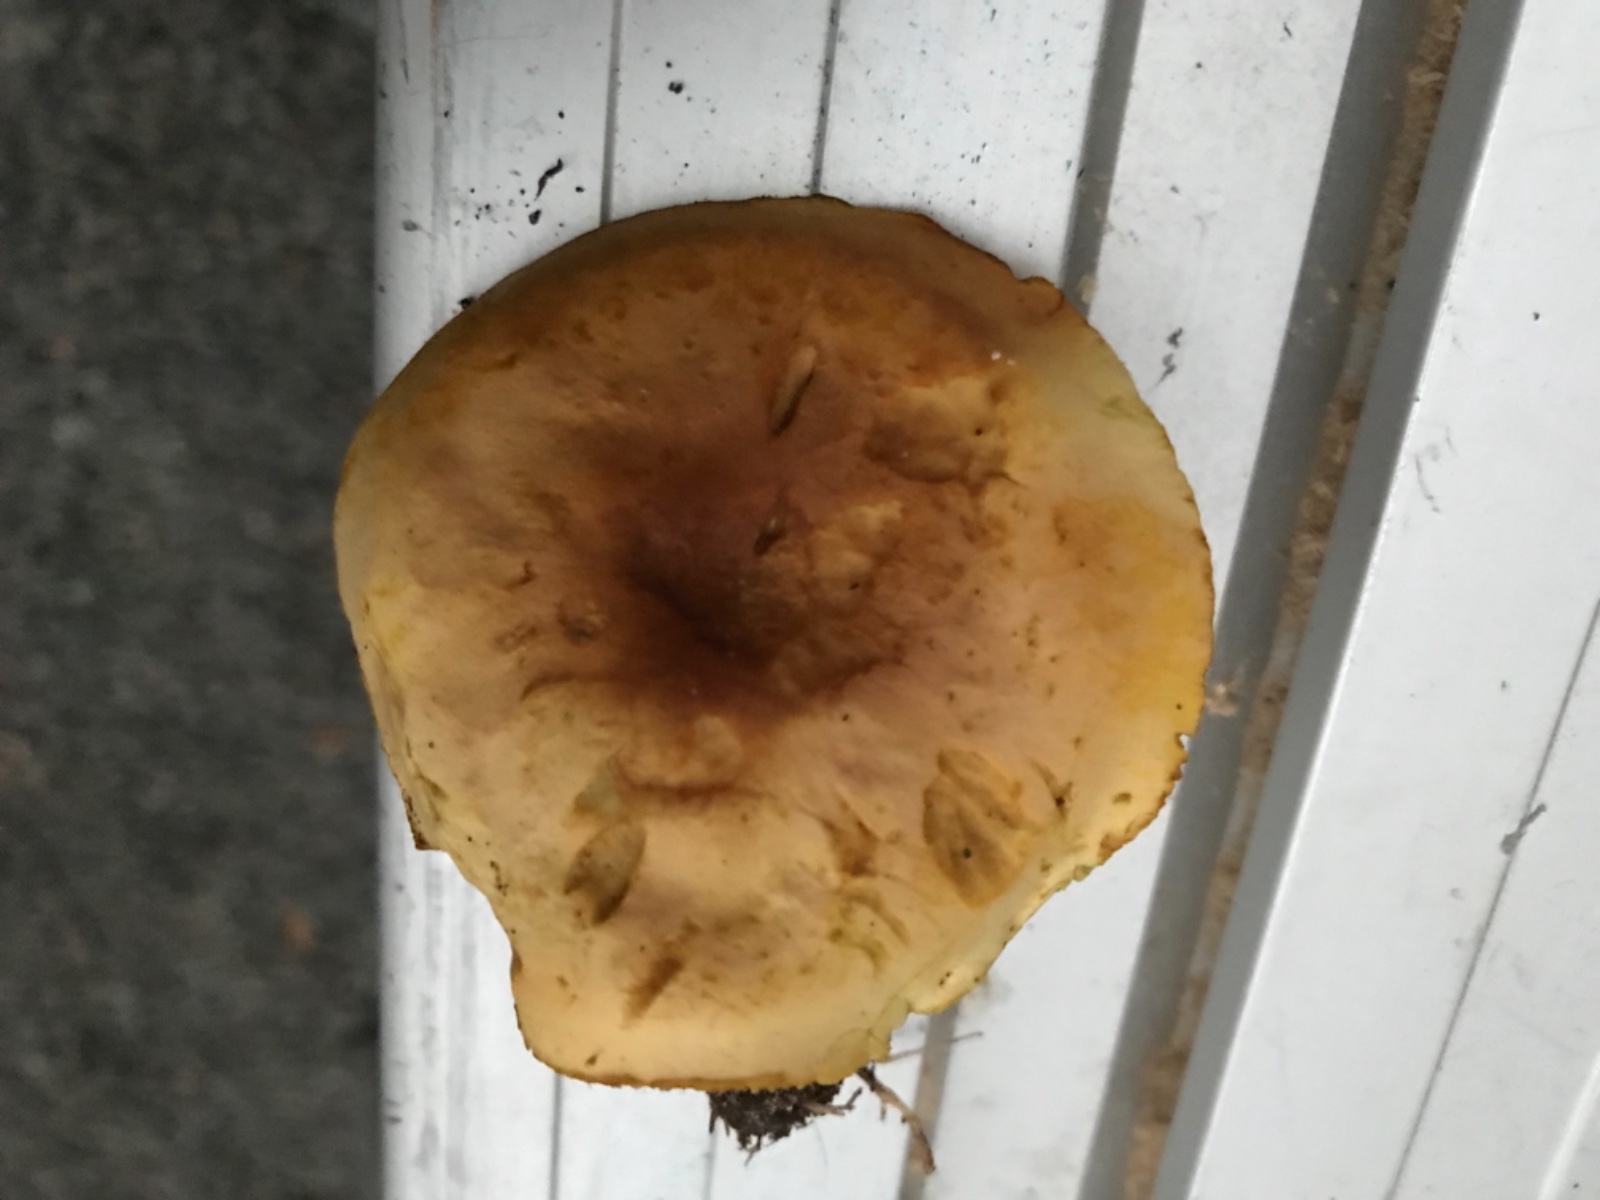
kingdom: Fungi
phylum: Basidiomycota
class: Agaricomycetes
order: Agaricales
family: Tricholomataceae
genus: Tricholoma
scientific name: Tricholoma sulphureum
